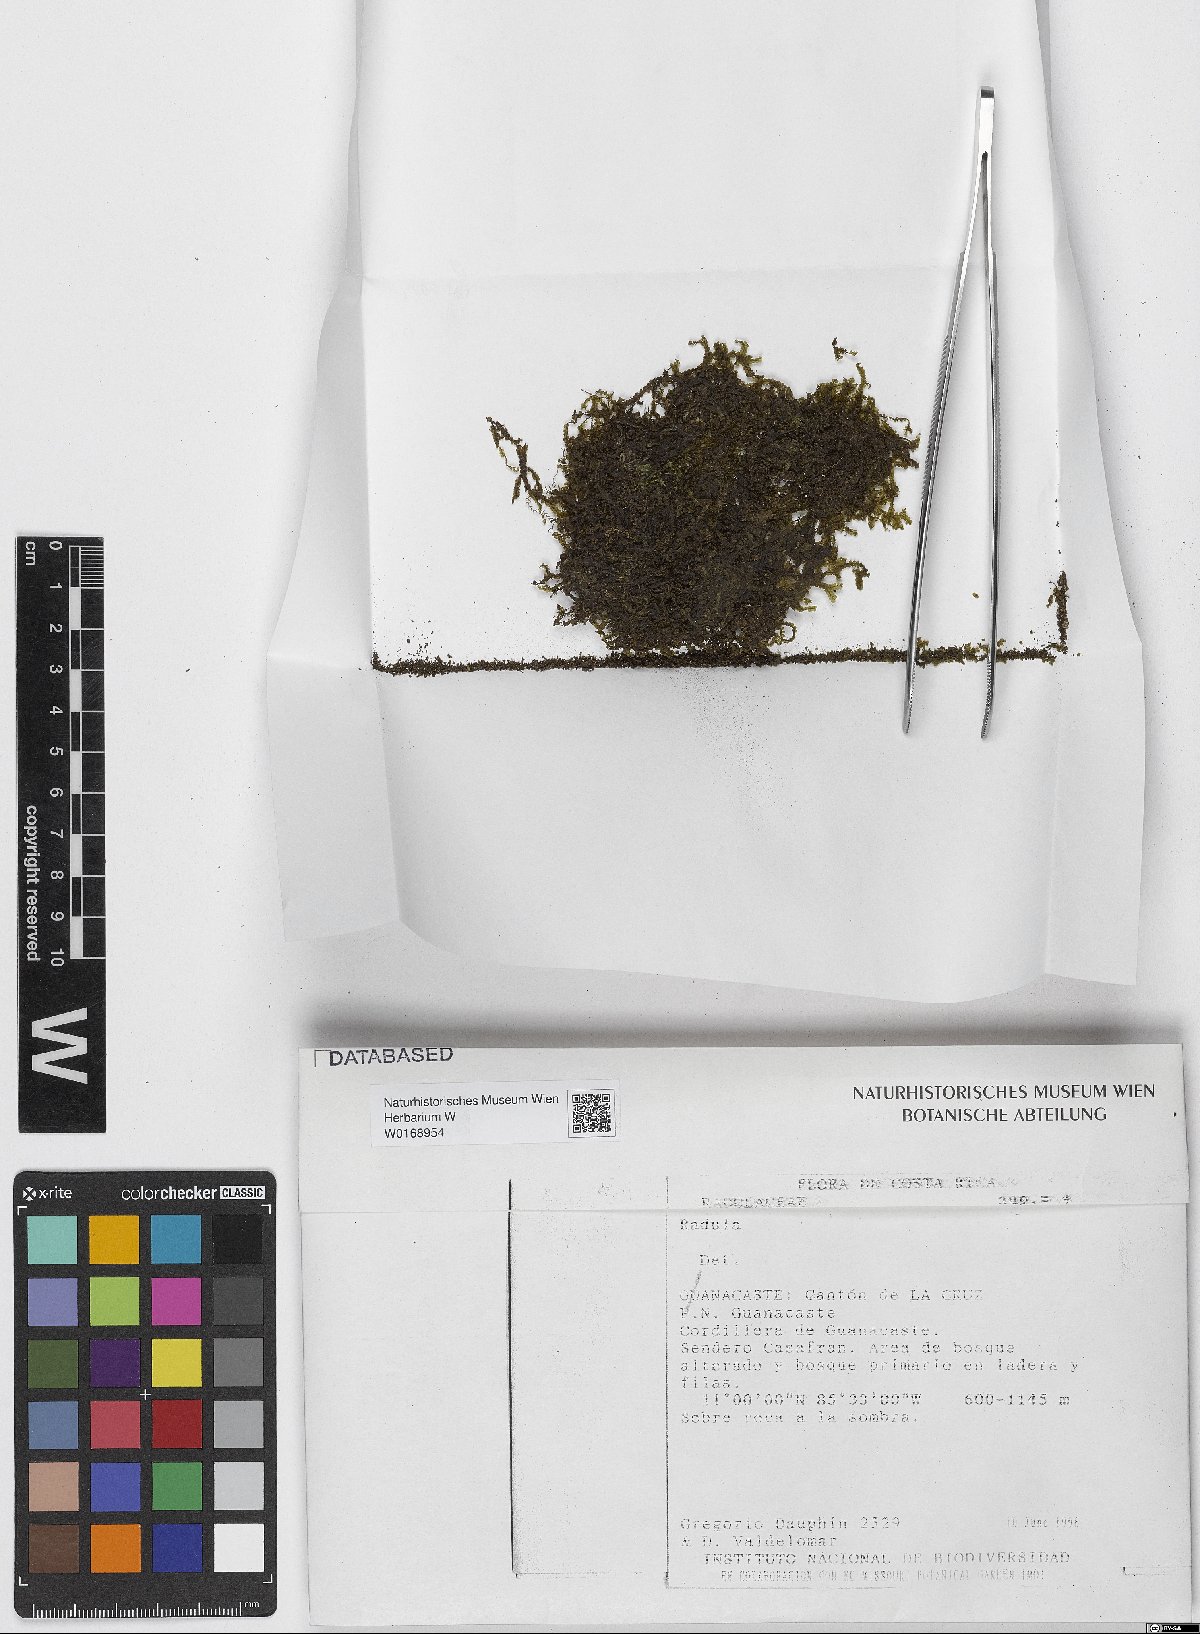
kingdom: Plantae
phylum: Marchantiophyta
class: Jungermanniopsida
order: Porellales
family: Radulaceae
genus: Radula
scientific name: Radula
